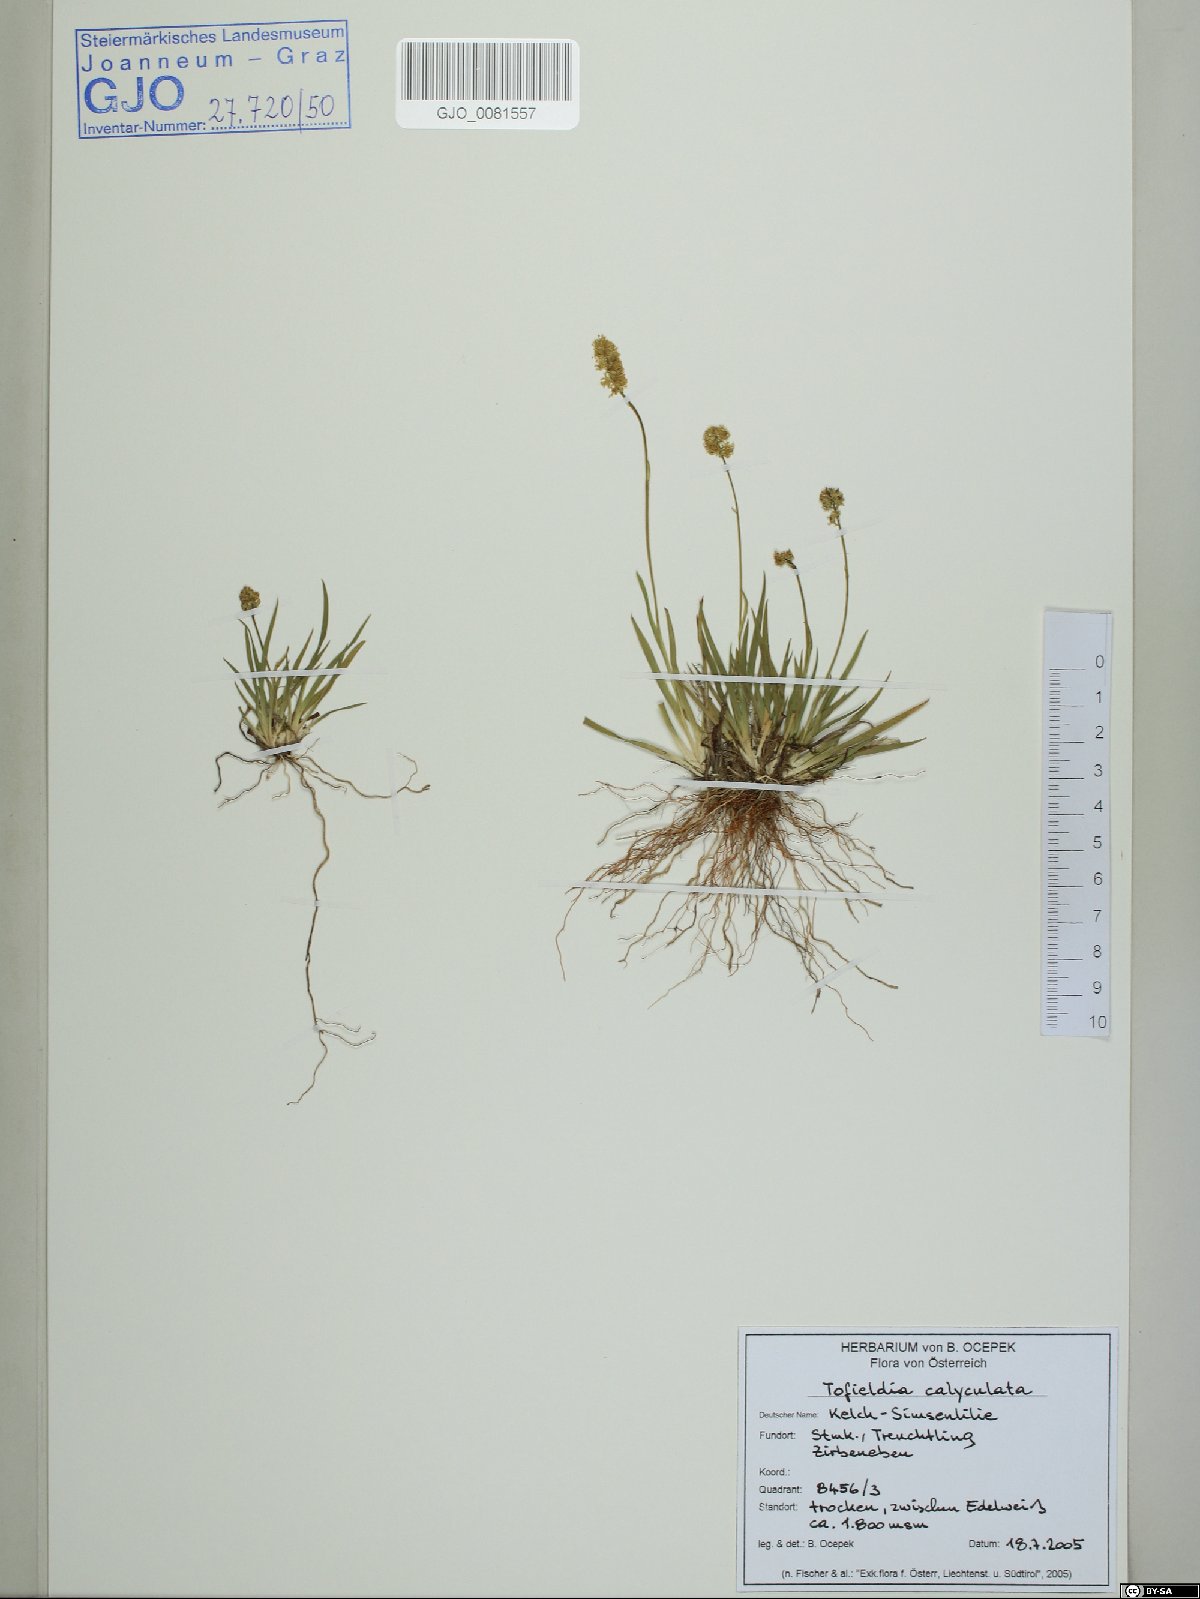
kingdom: Plantae
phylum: Tracheophyta
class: Liliopsida
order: Alismatales
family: Tofieldiaceae
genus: Tofieldia
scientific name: Tofieldia calyculata
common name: German-asphodel
